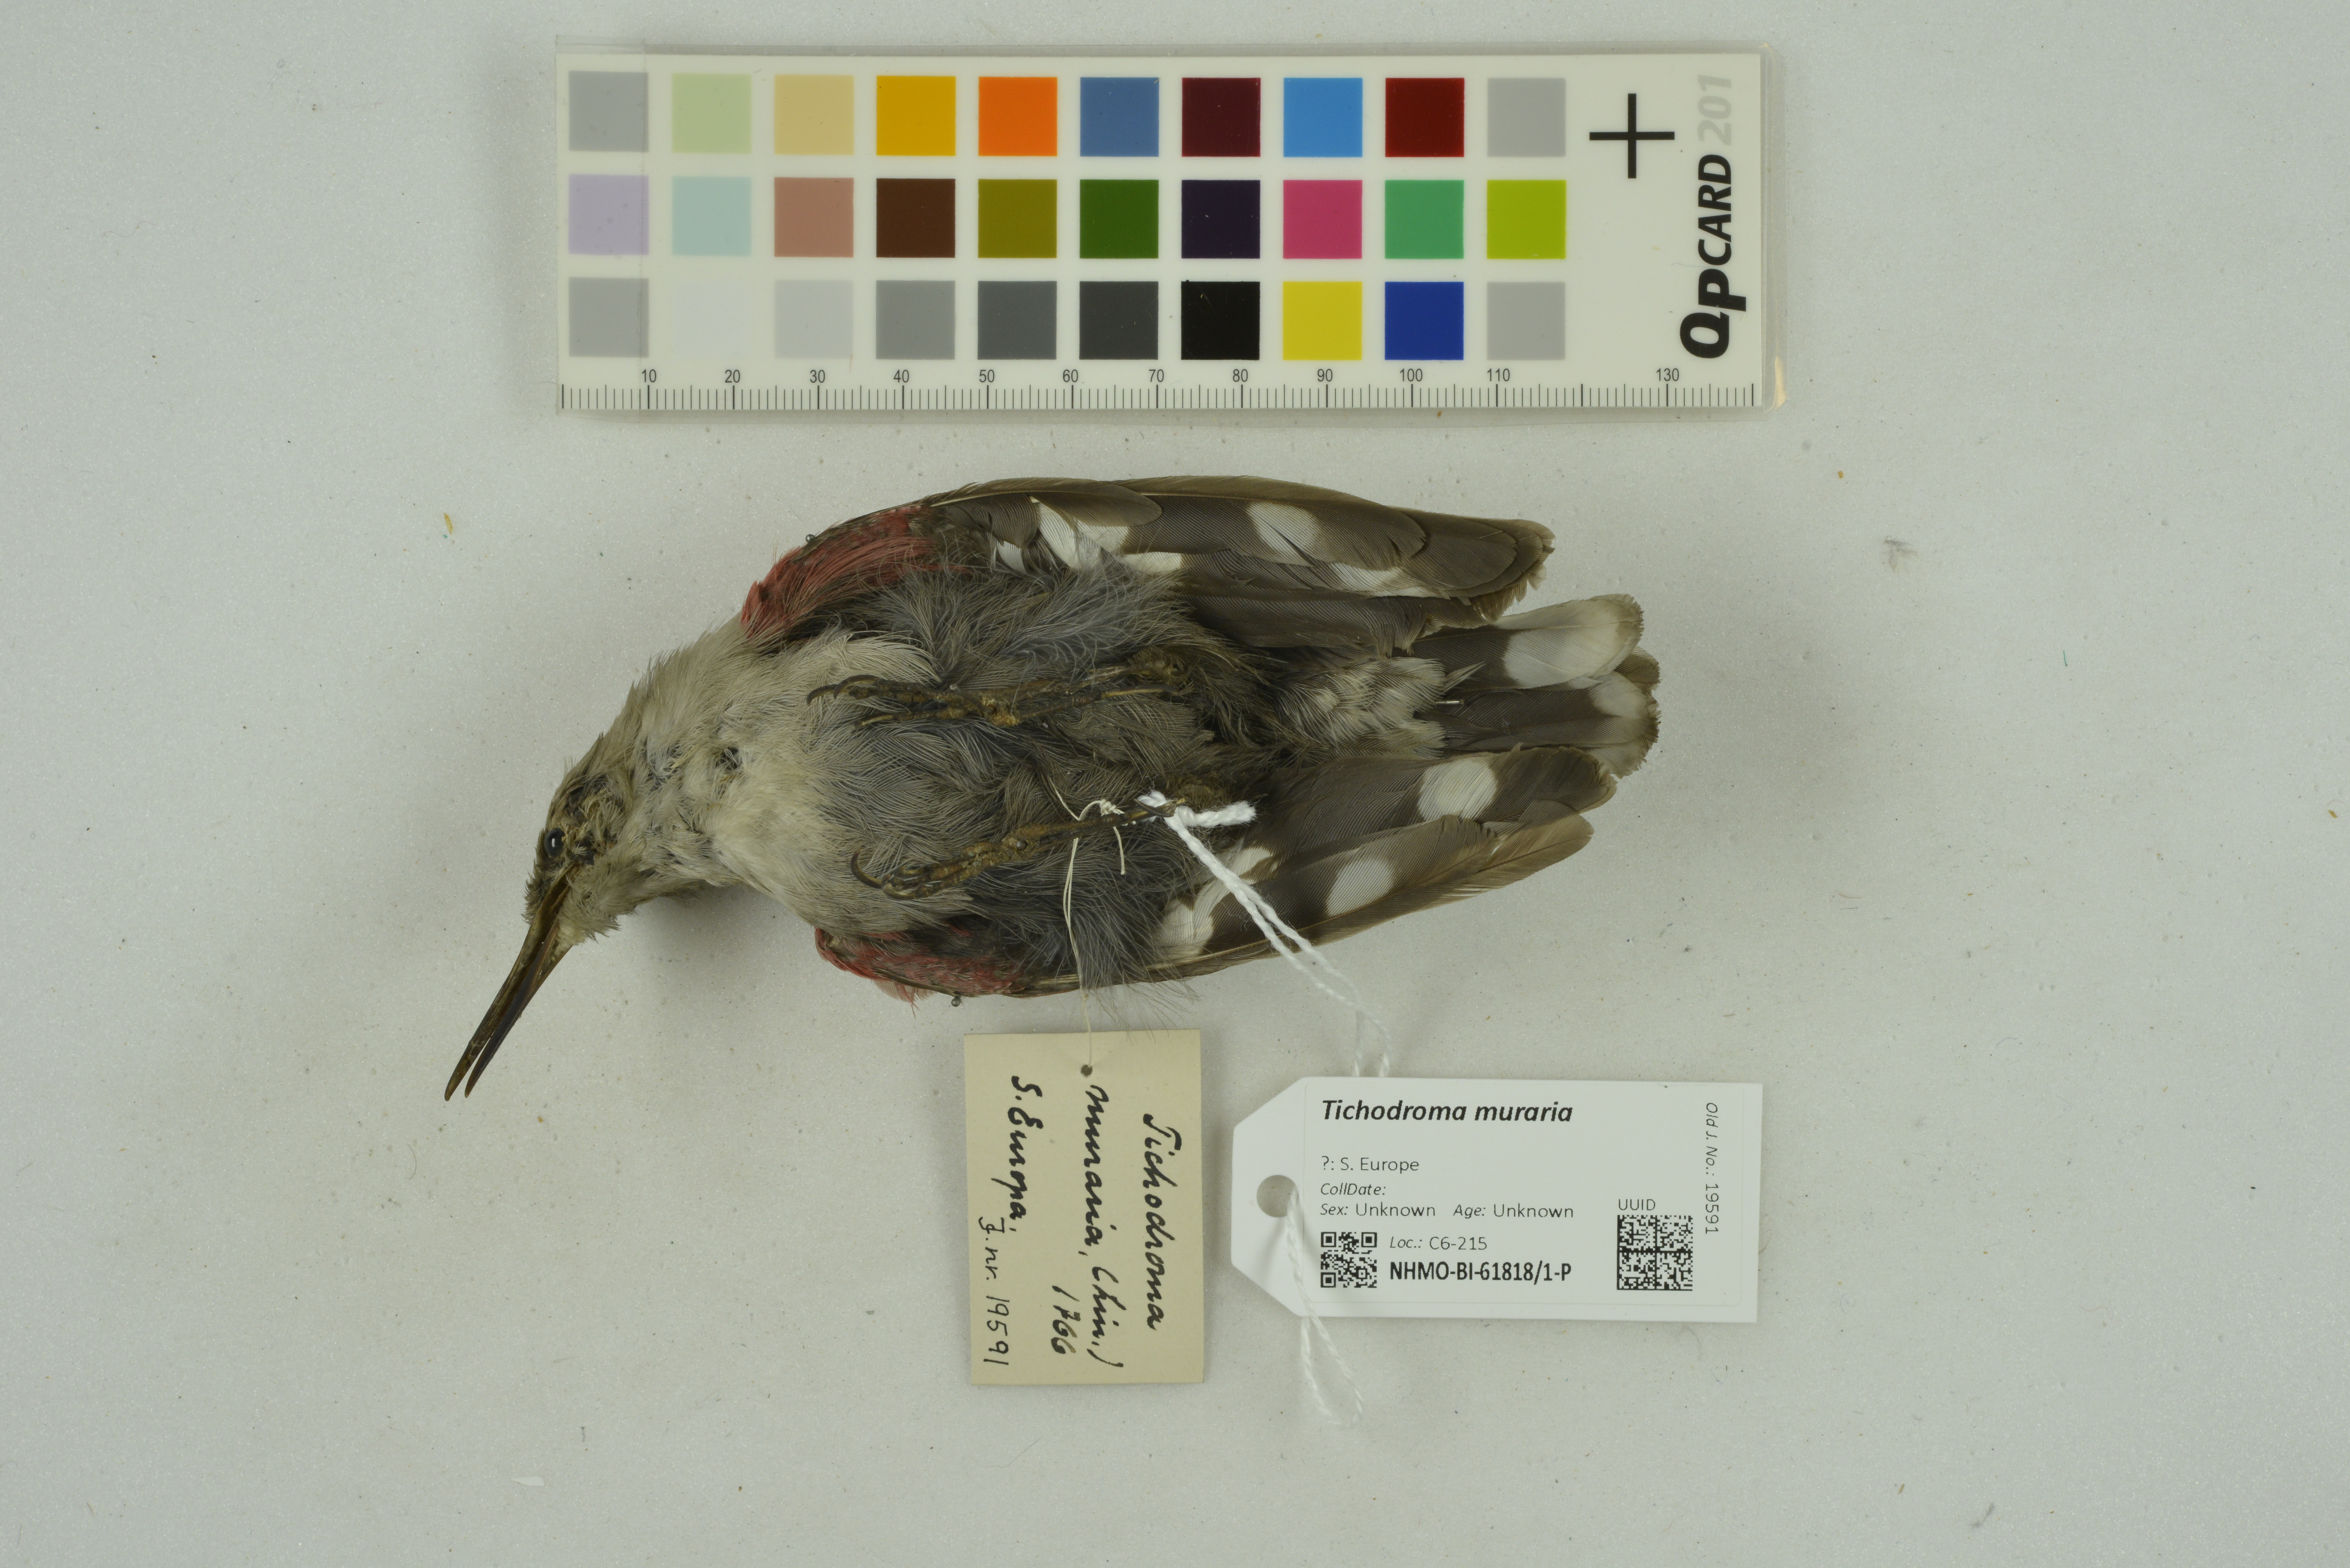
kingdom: Animalia
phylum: Chordata
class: Aves
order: Passeriformes
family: Tichodromidae
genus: Tichodroma
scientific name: Tichodroma muraria
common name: Wallcreeper
